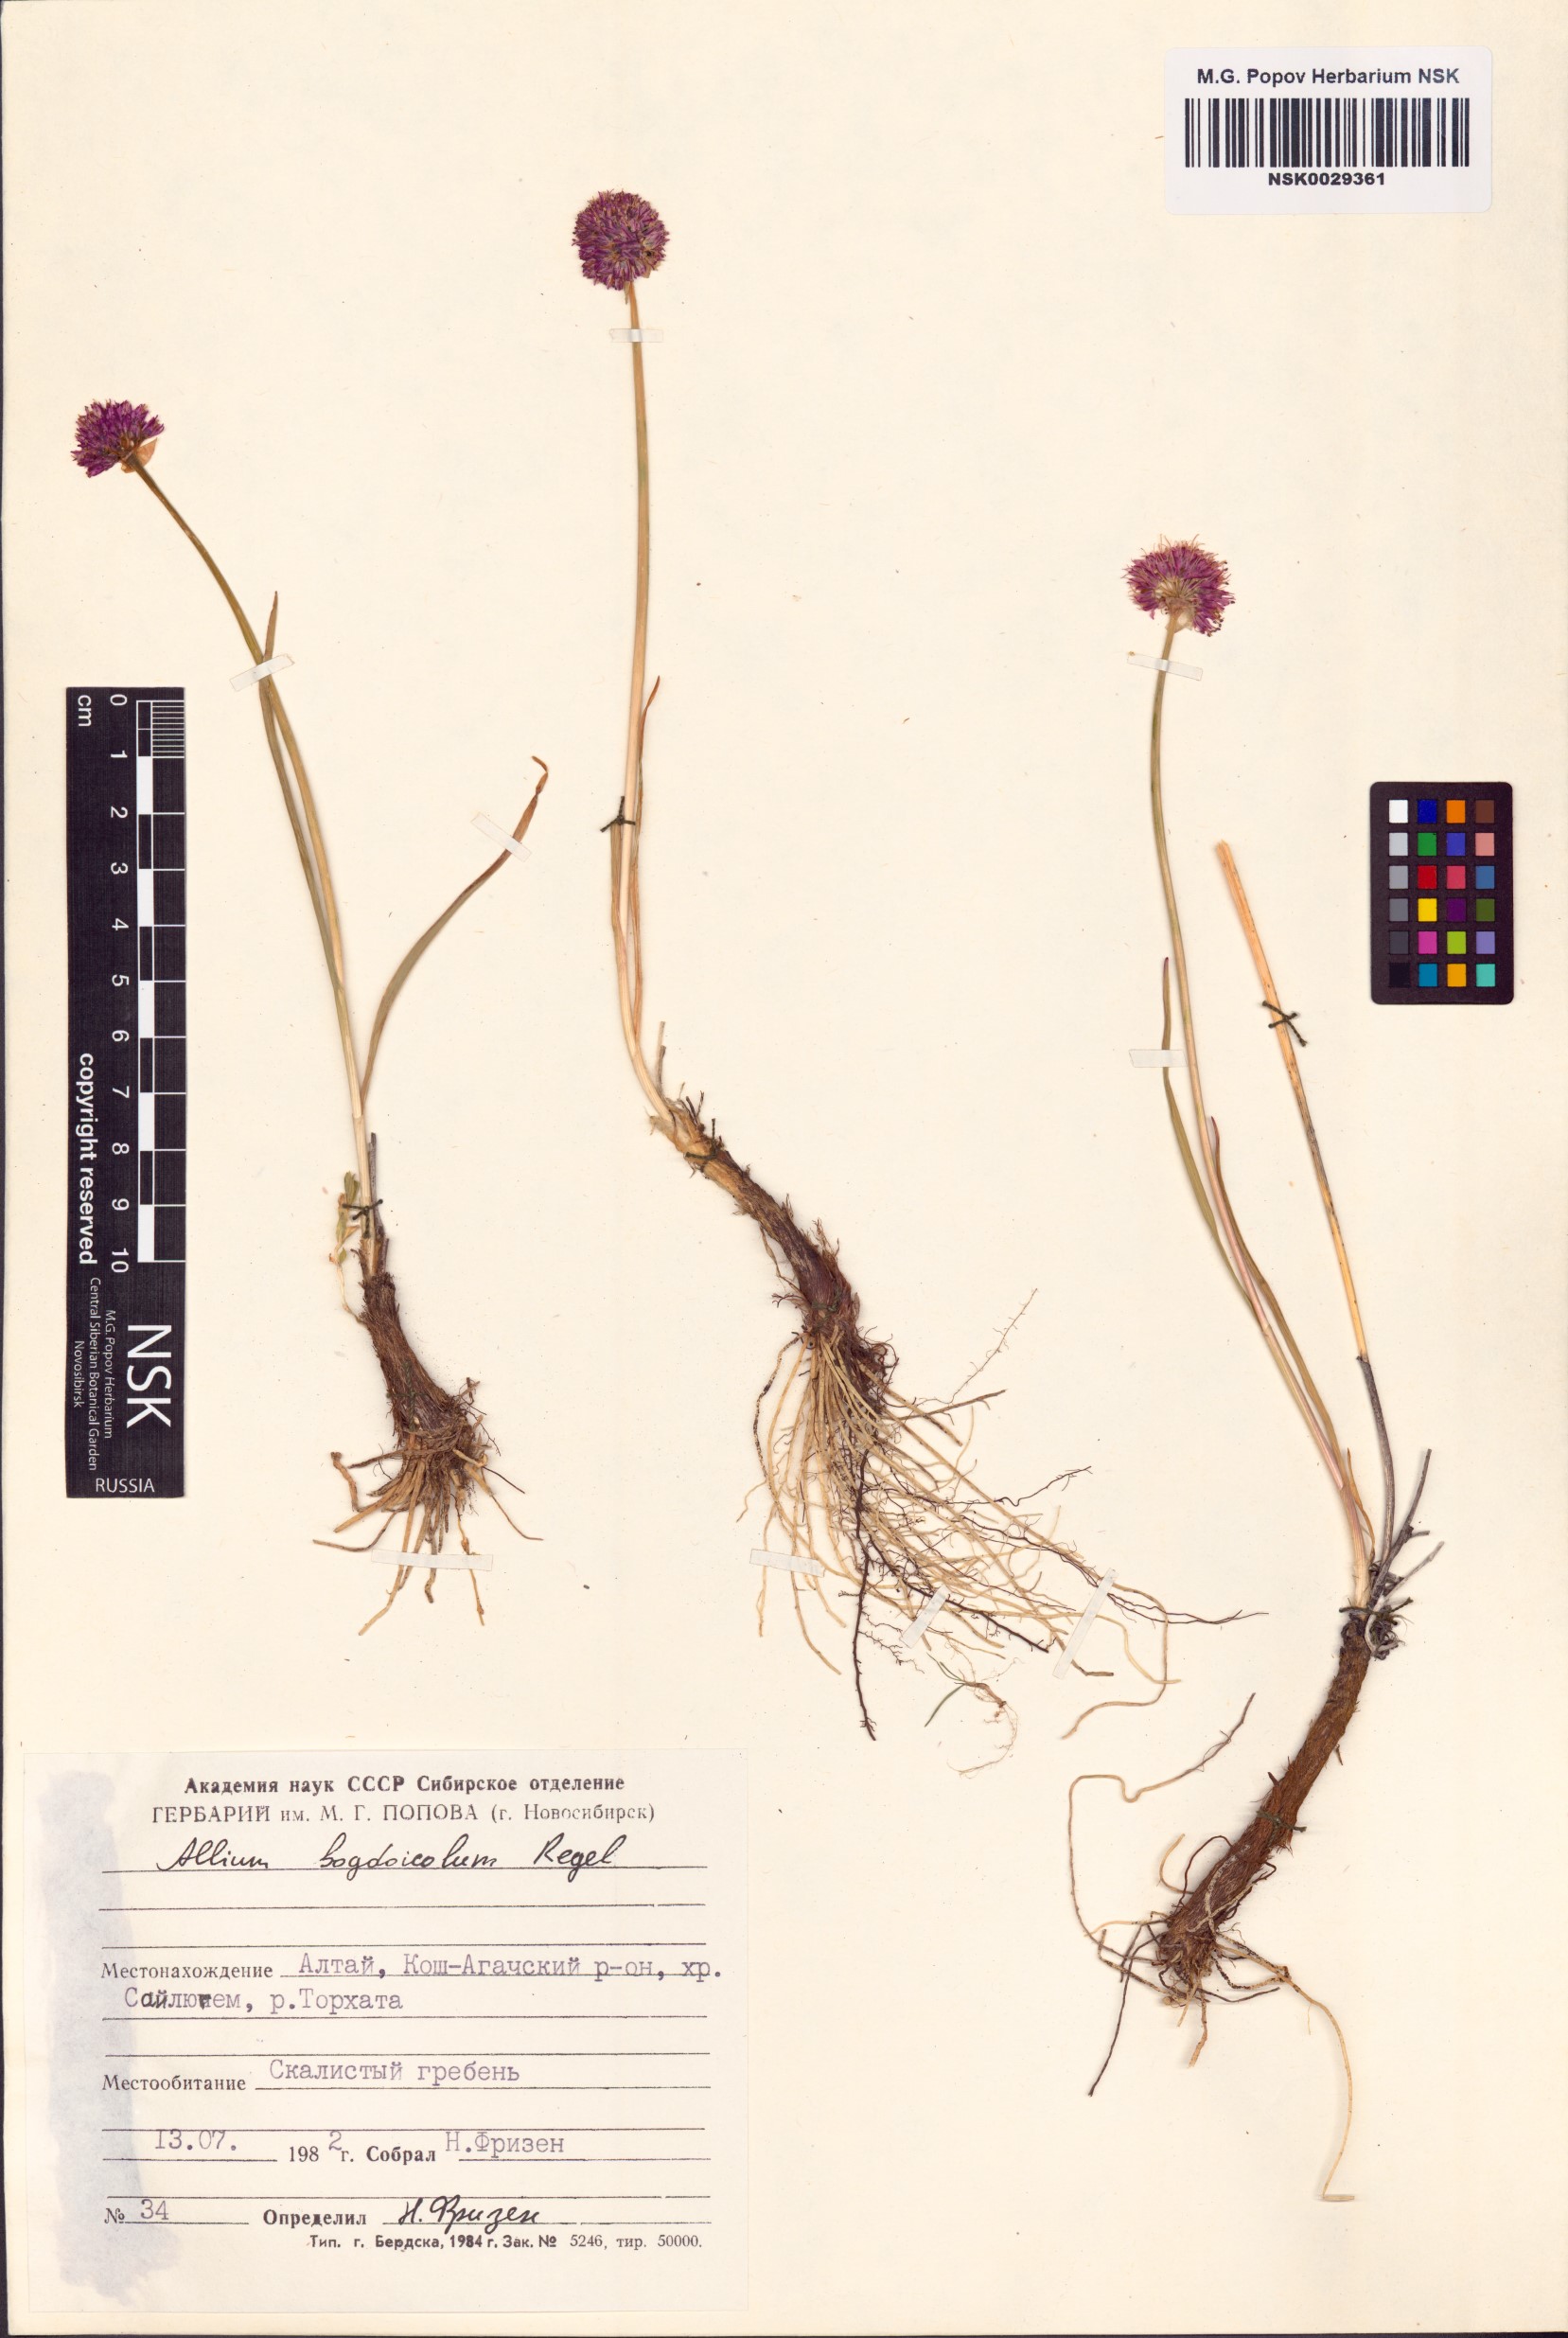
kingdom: Plantae
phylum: Tracheophyta
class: Liliopsida
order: Asparagales
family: Amaryllidaceae
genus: Allium
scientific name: Allium schrenkii
